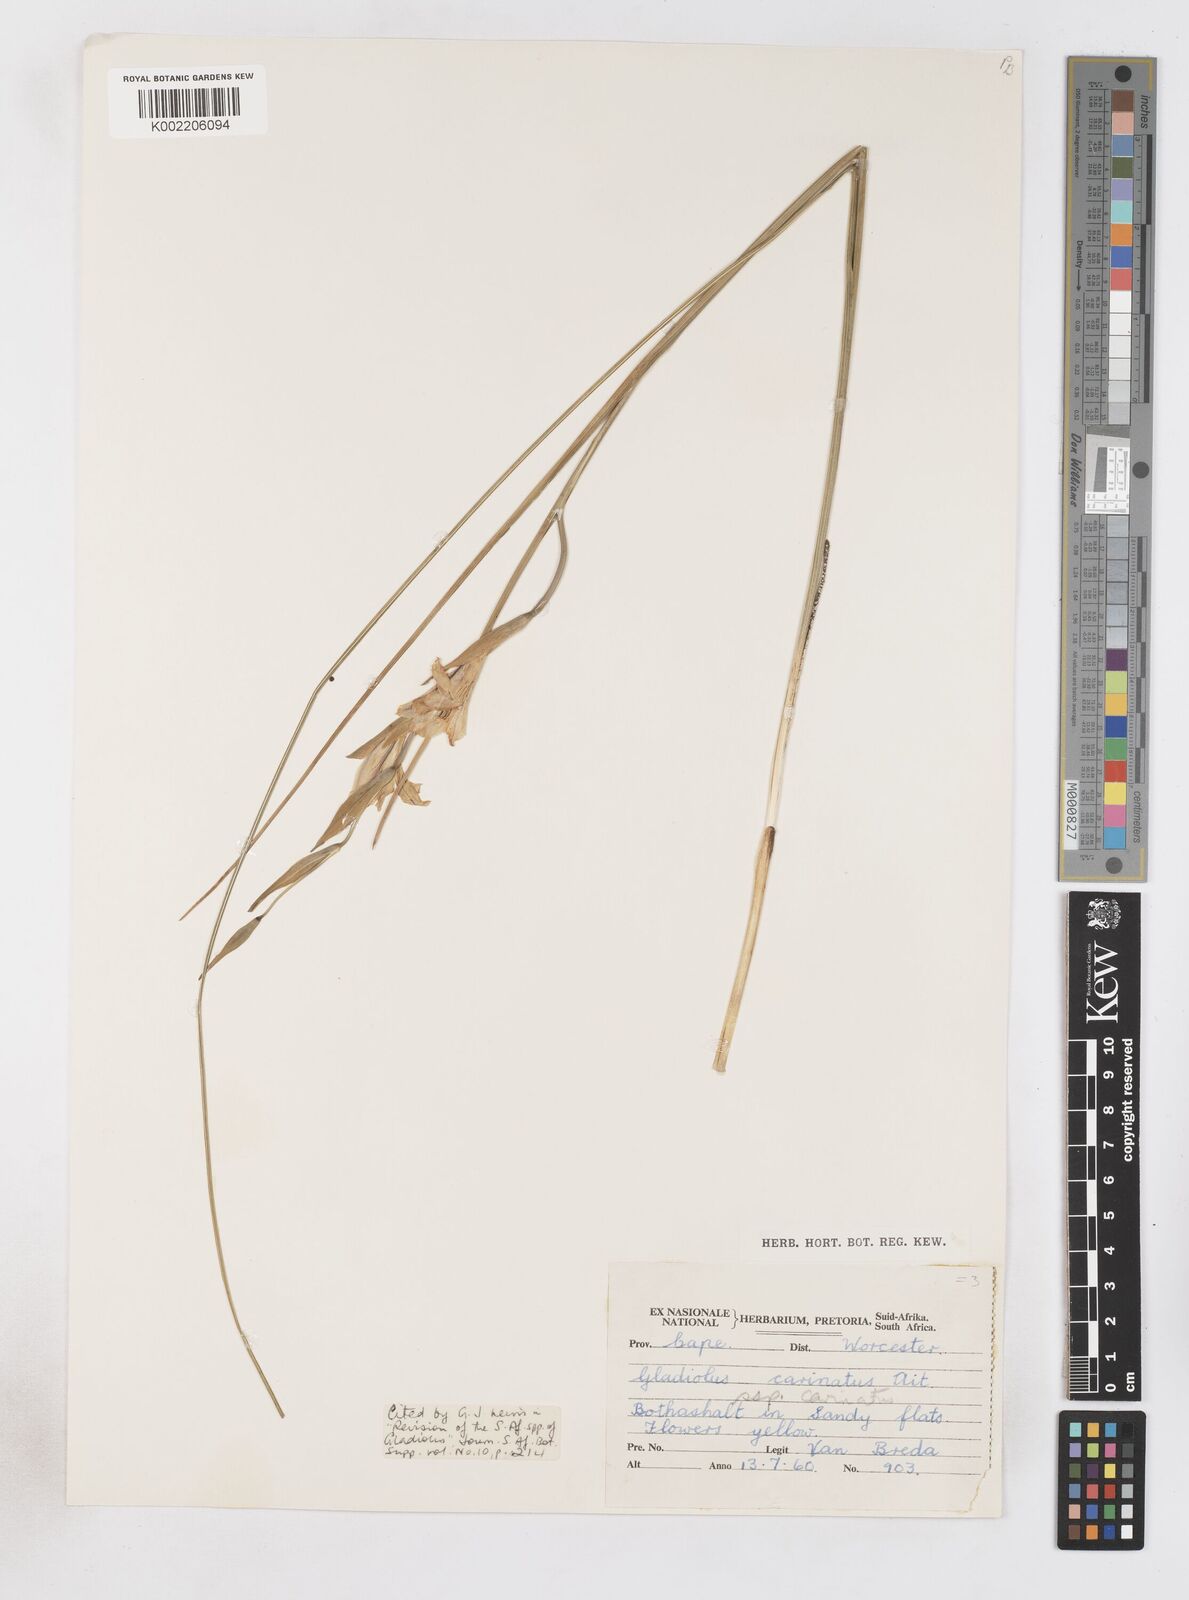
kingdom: Plantae
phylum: Tracheophyta
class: Liliopsida
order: Asparagales
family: Iridaceae
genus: Gladiolus
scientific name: Gladiolus carinatus
